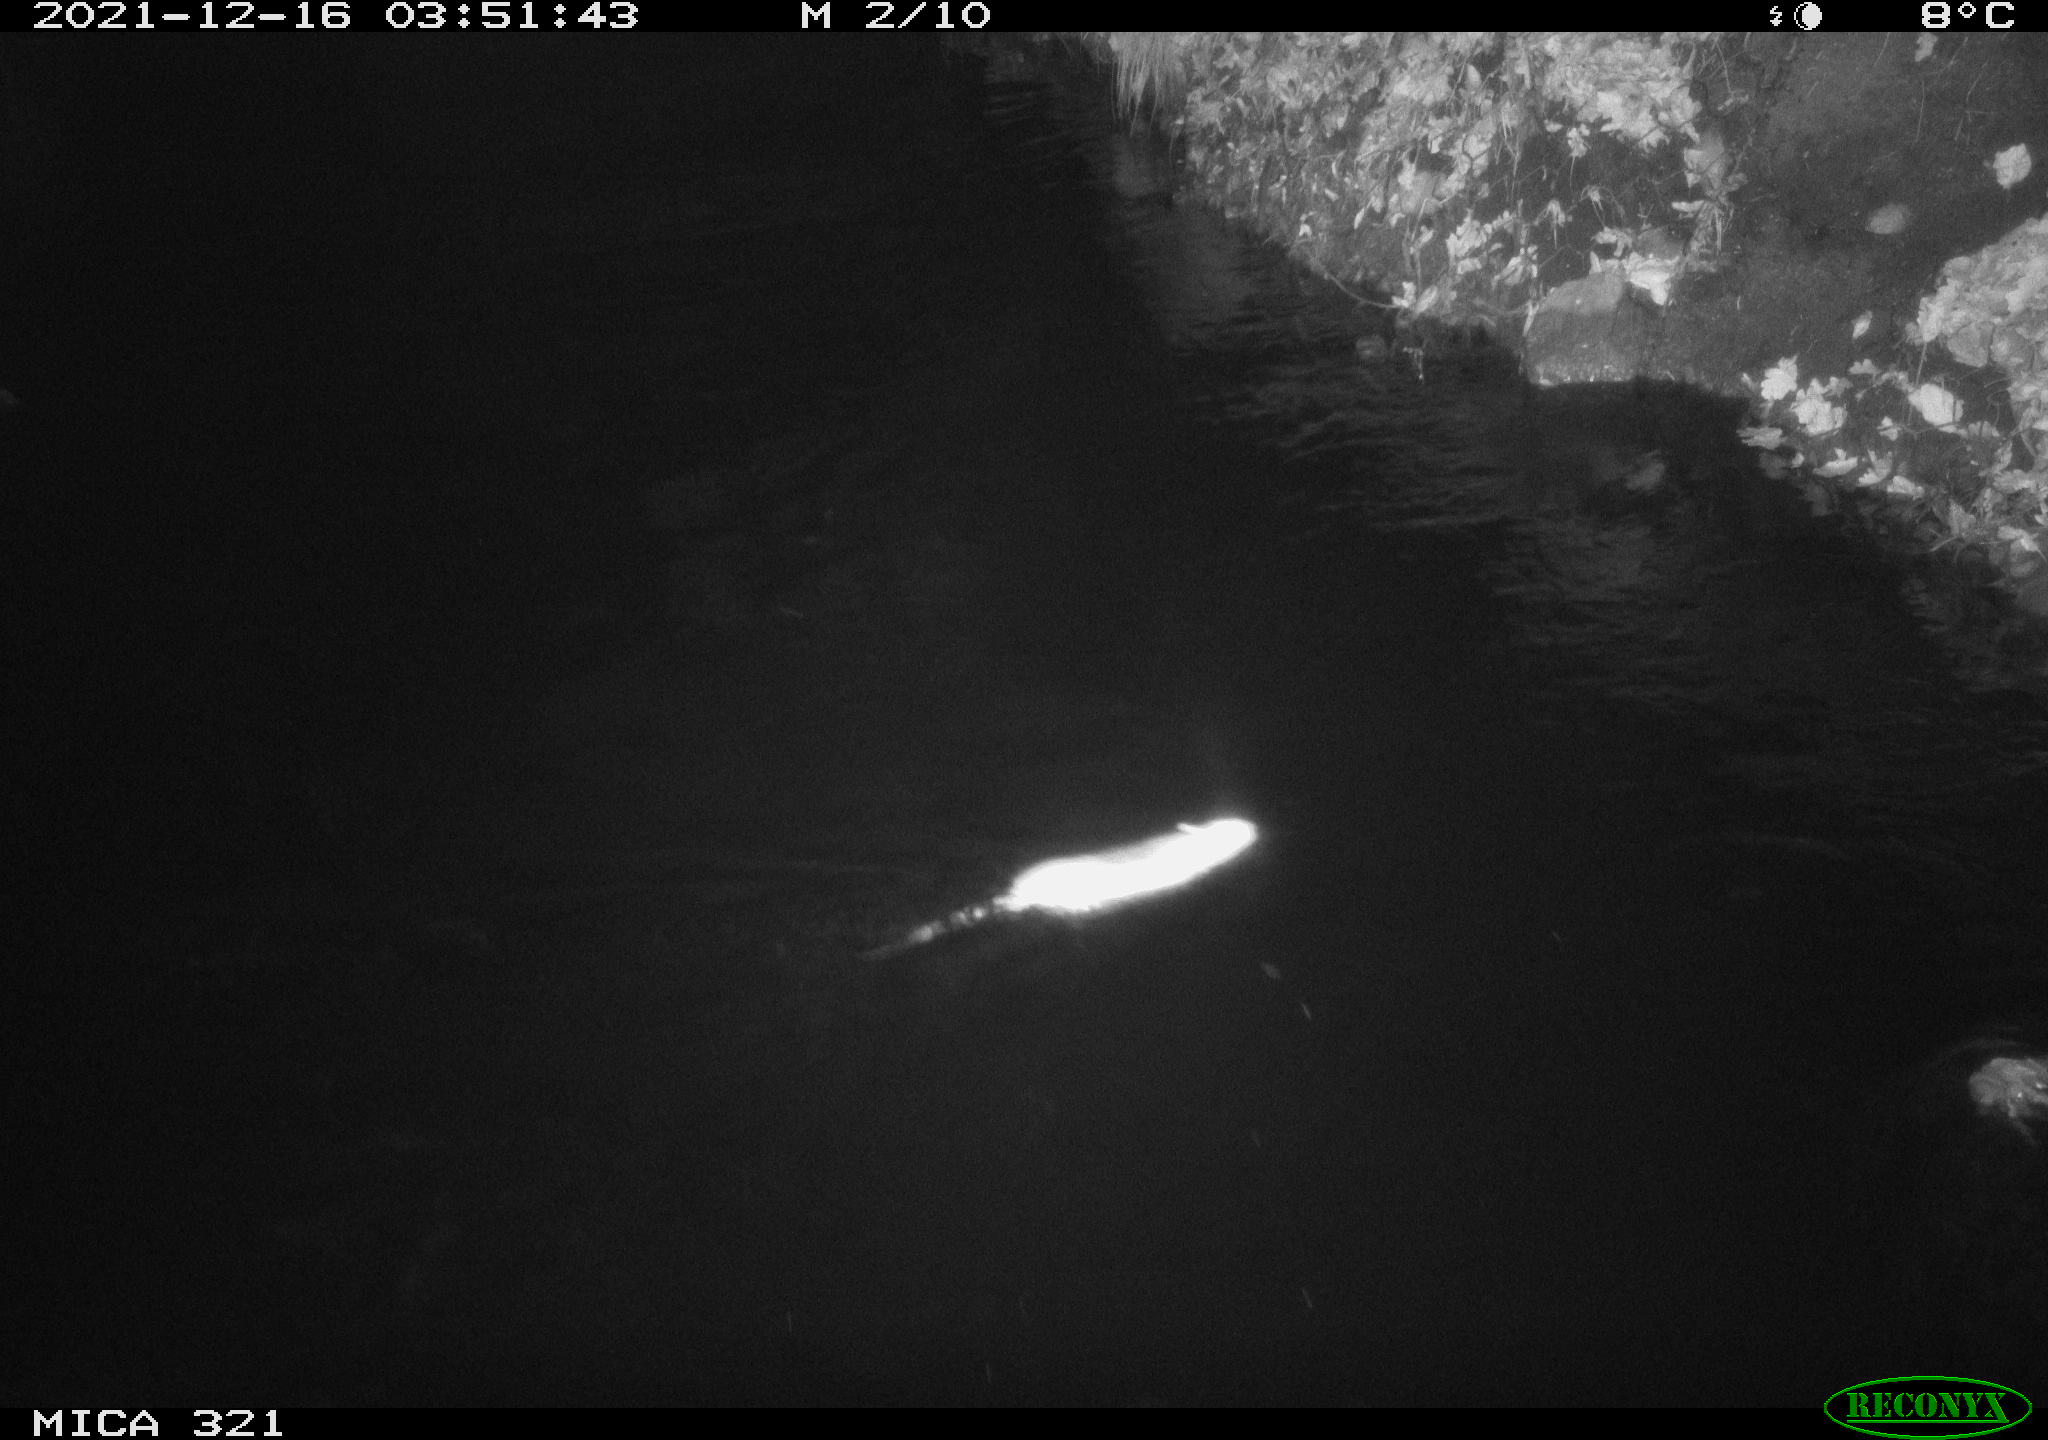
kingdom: Animalia
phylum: Chordata
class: Mammalia
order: Rodentia
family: Muridae
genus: Rattus
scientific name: Rattus norvegicus
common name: Brown rat
